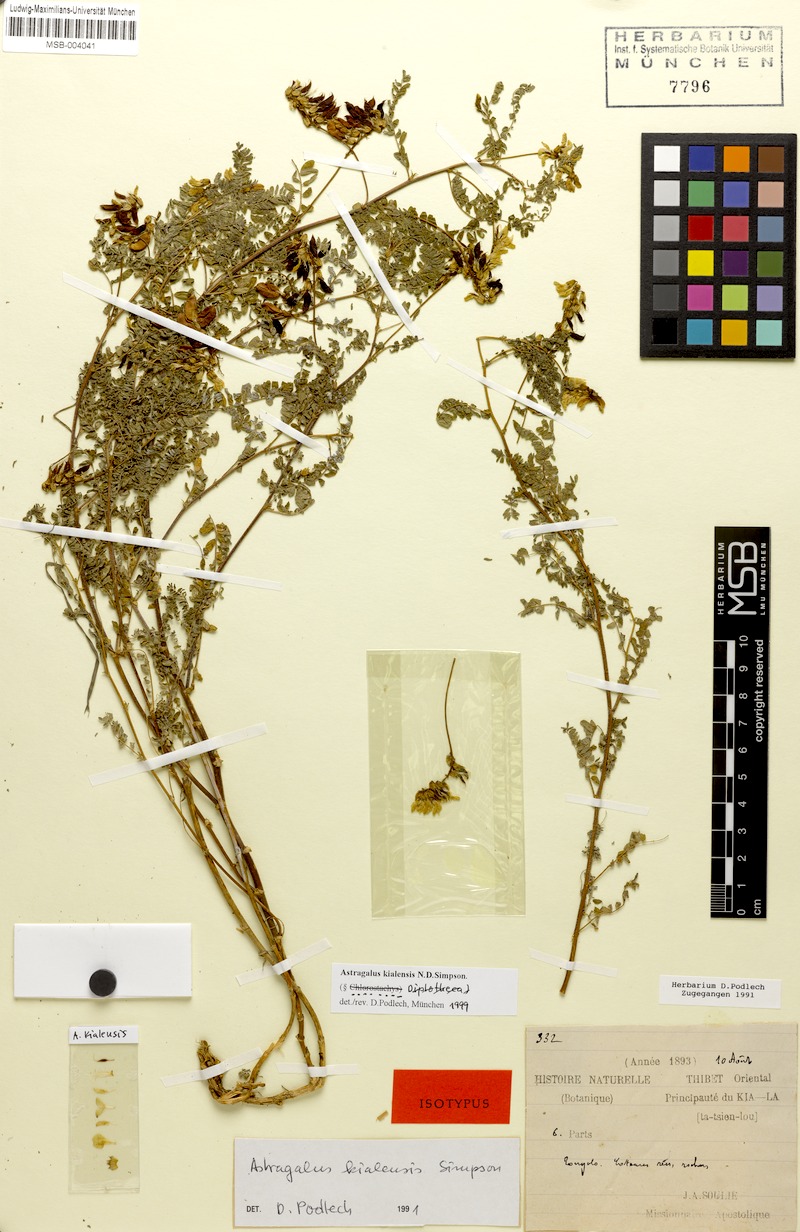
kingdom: Plantae
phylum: Tracheophyta
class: Magnoliopsida
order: Fabales
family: Fabaceae
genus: Astragalus
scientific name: Astragalus kialensis
